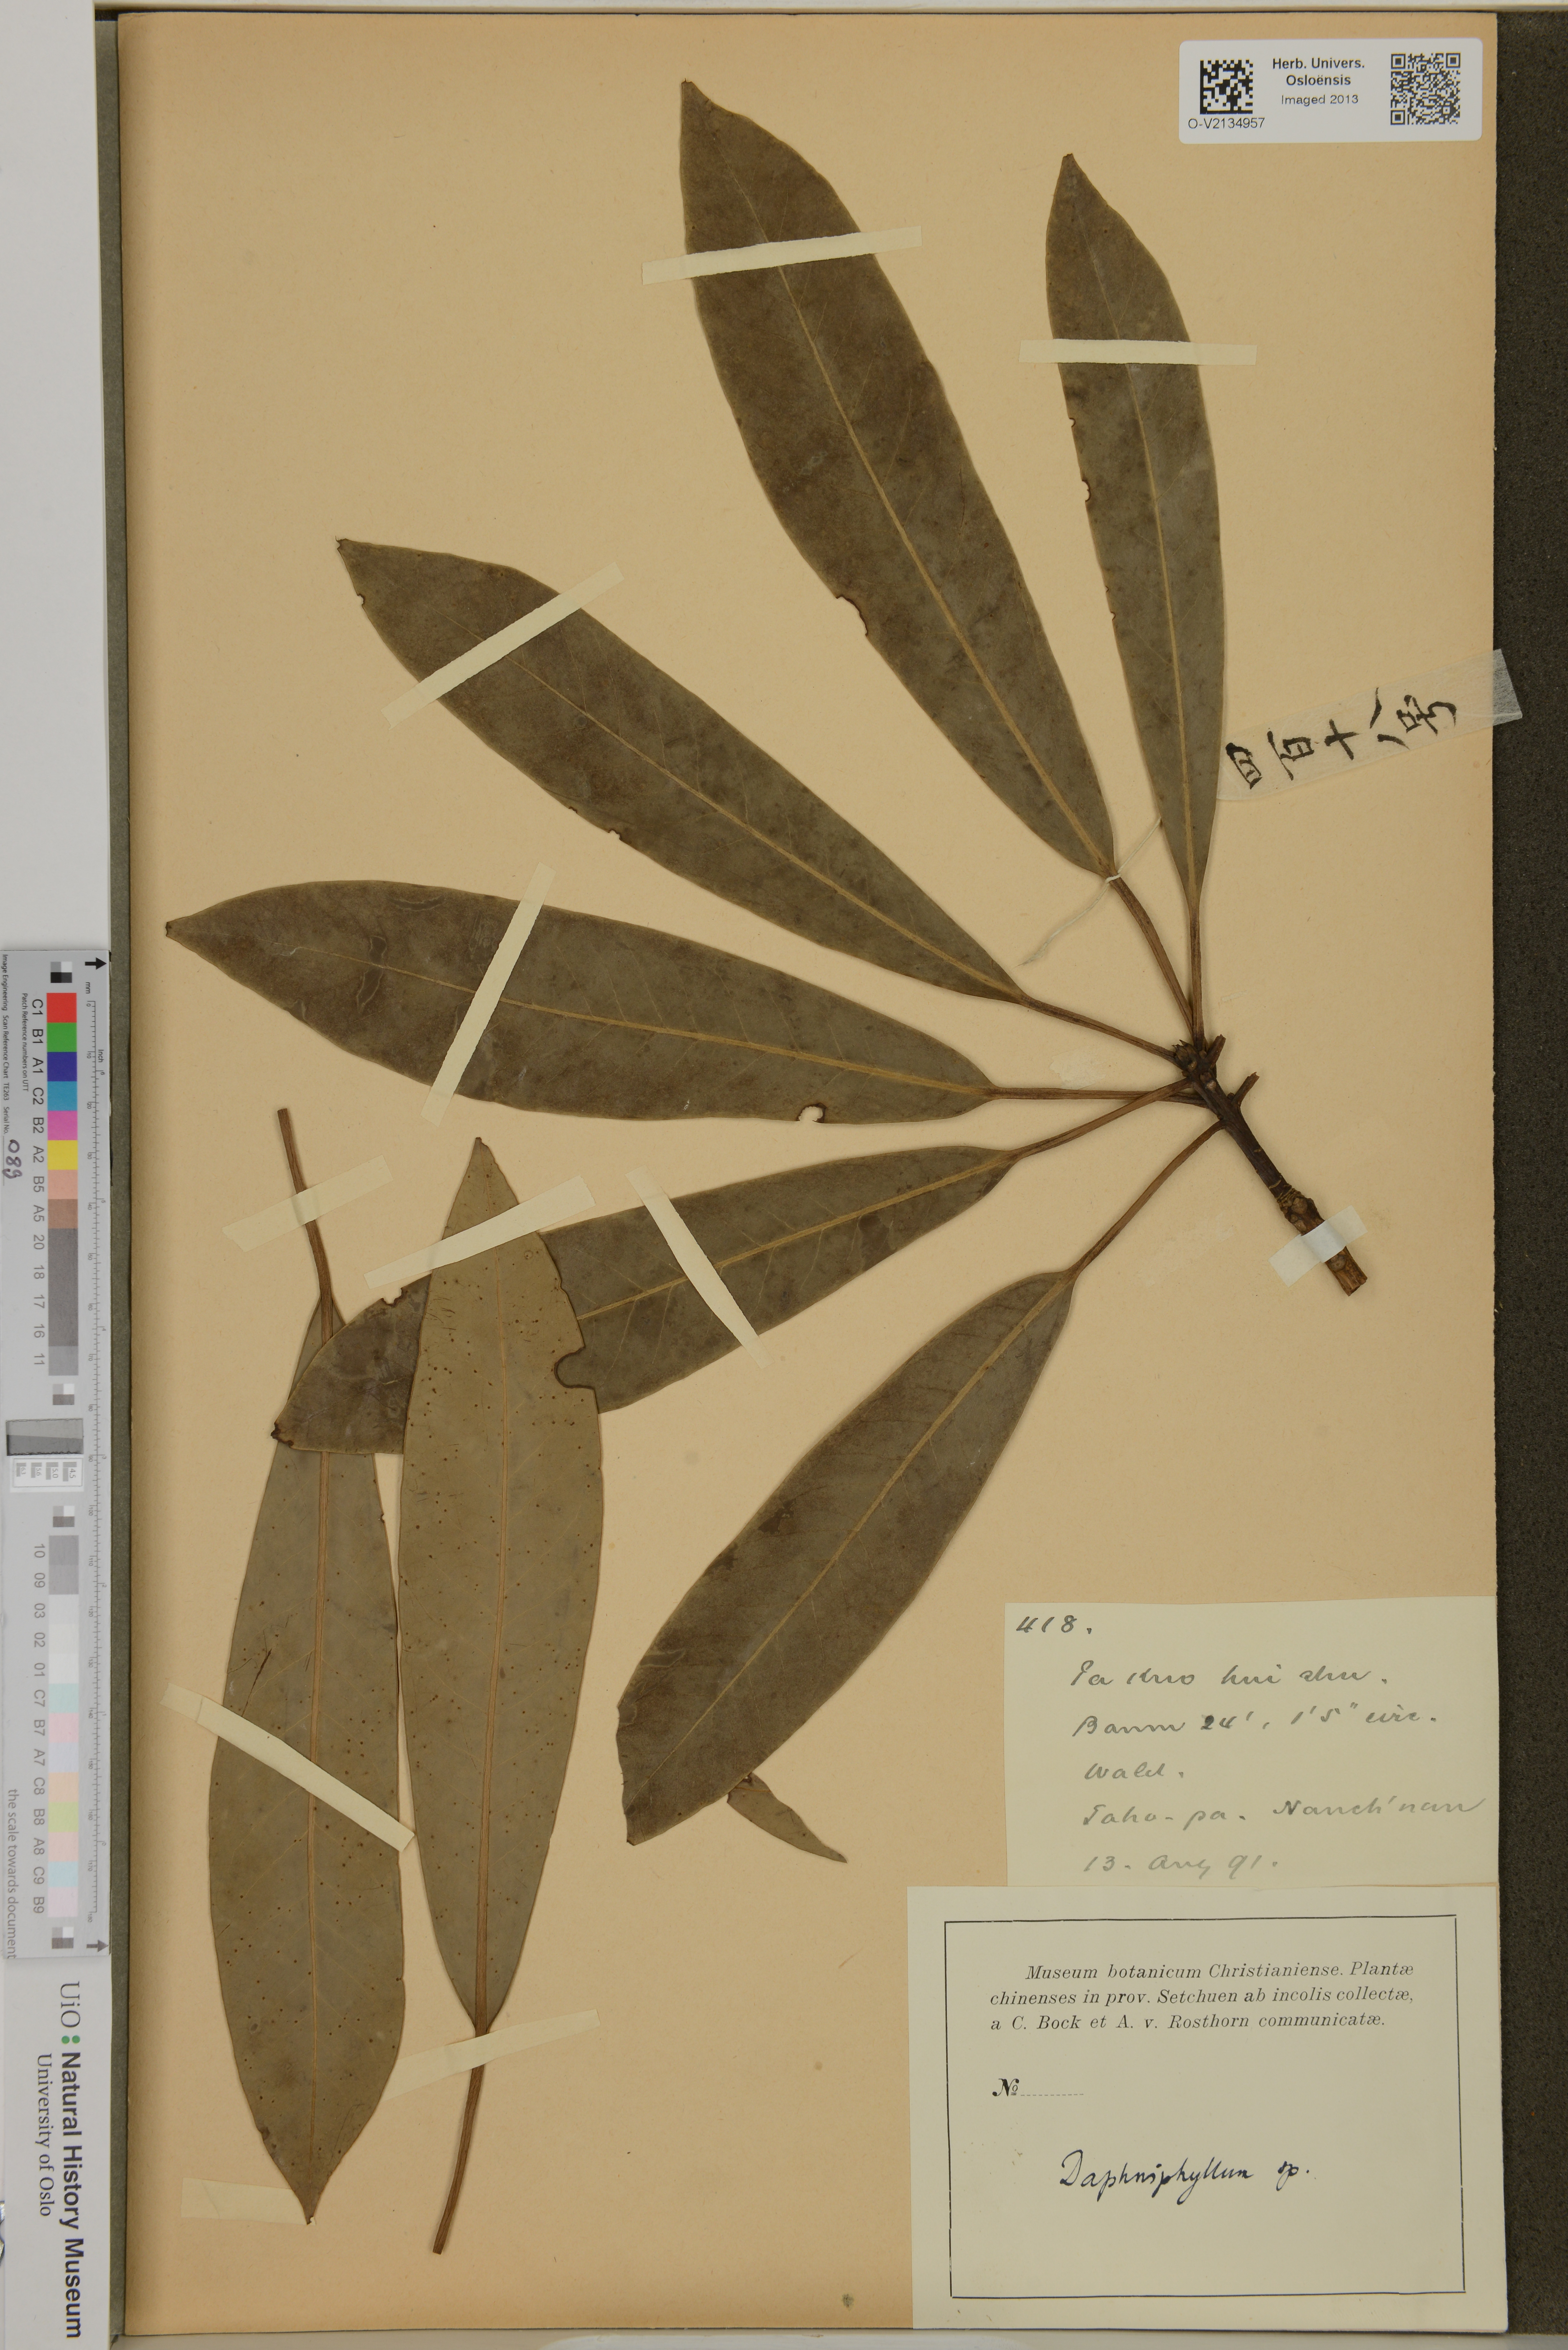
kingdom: Plantae
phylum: Tracheophyta
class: Magnoliopsida
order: Saxifragales
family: Daphniphyllaceae
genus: Daphniphyllum
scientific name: Daphniphyllum
